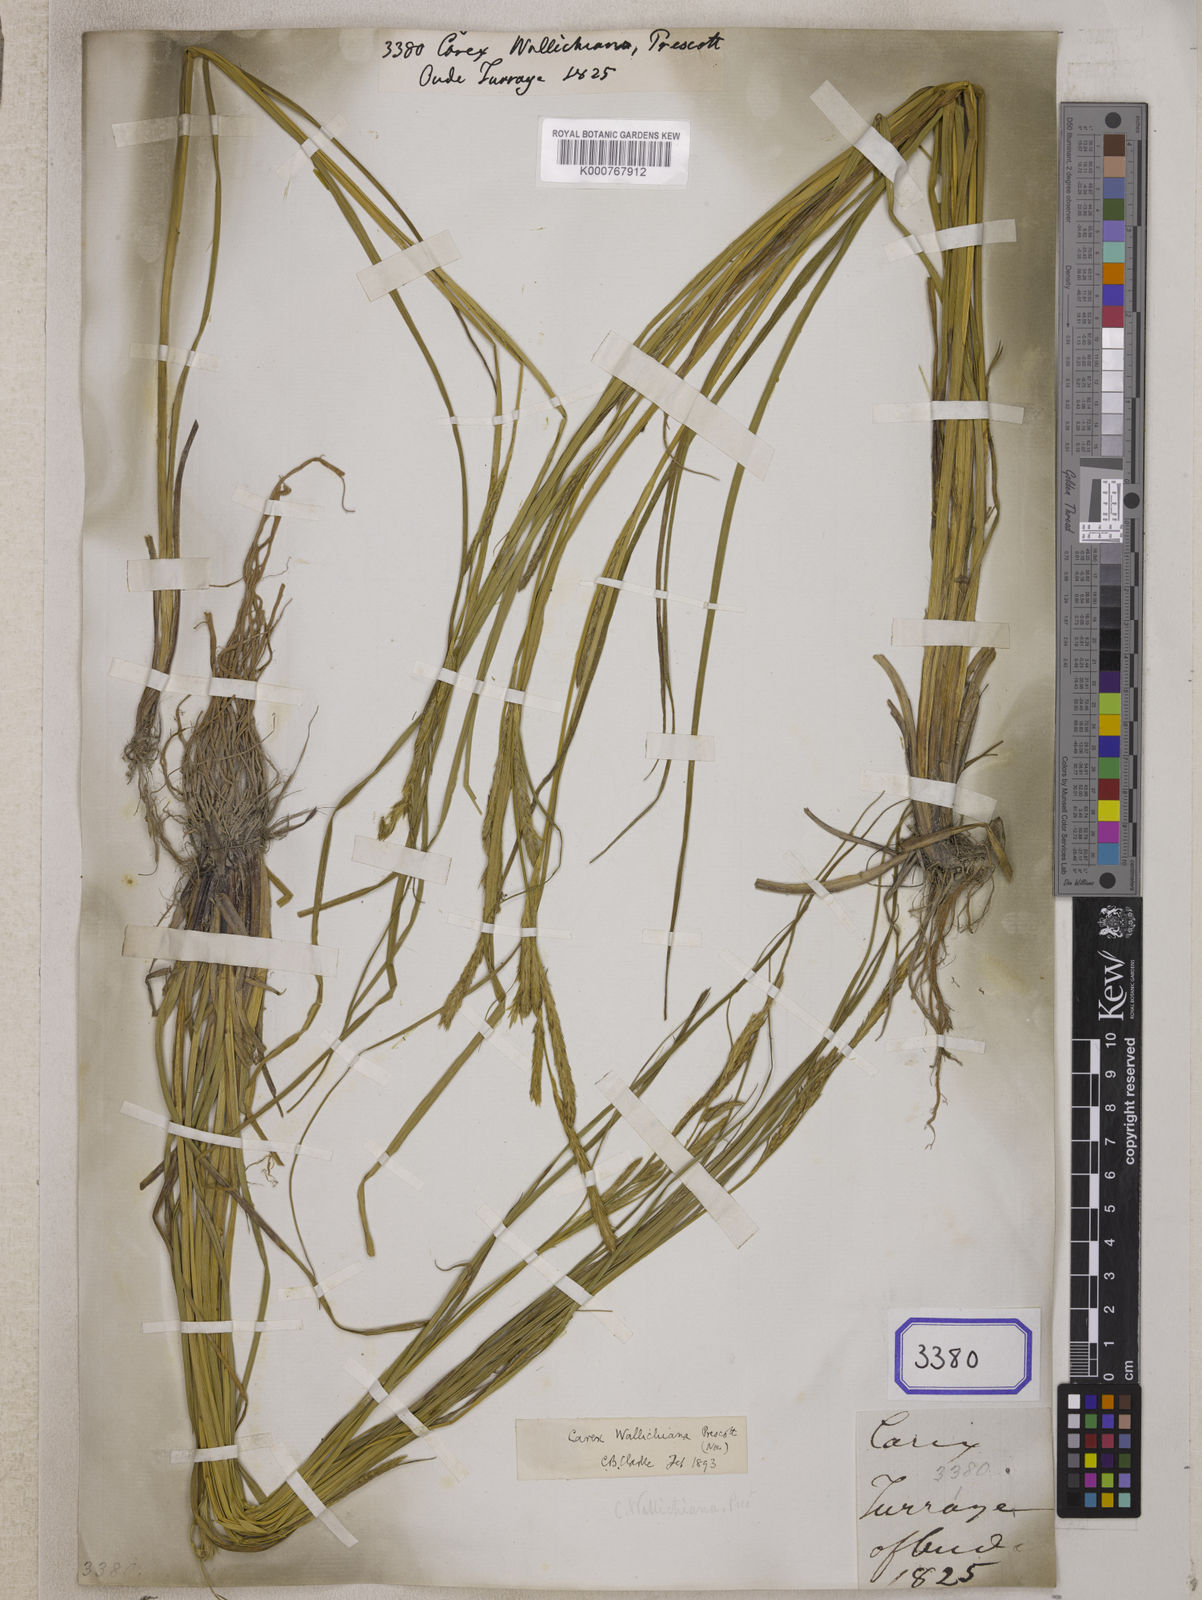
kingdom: Plantae
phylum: Tracheophyta
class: Liliopsida
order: Poales
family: Cyperaceae
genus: Carex
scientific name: Carex
